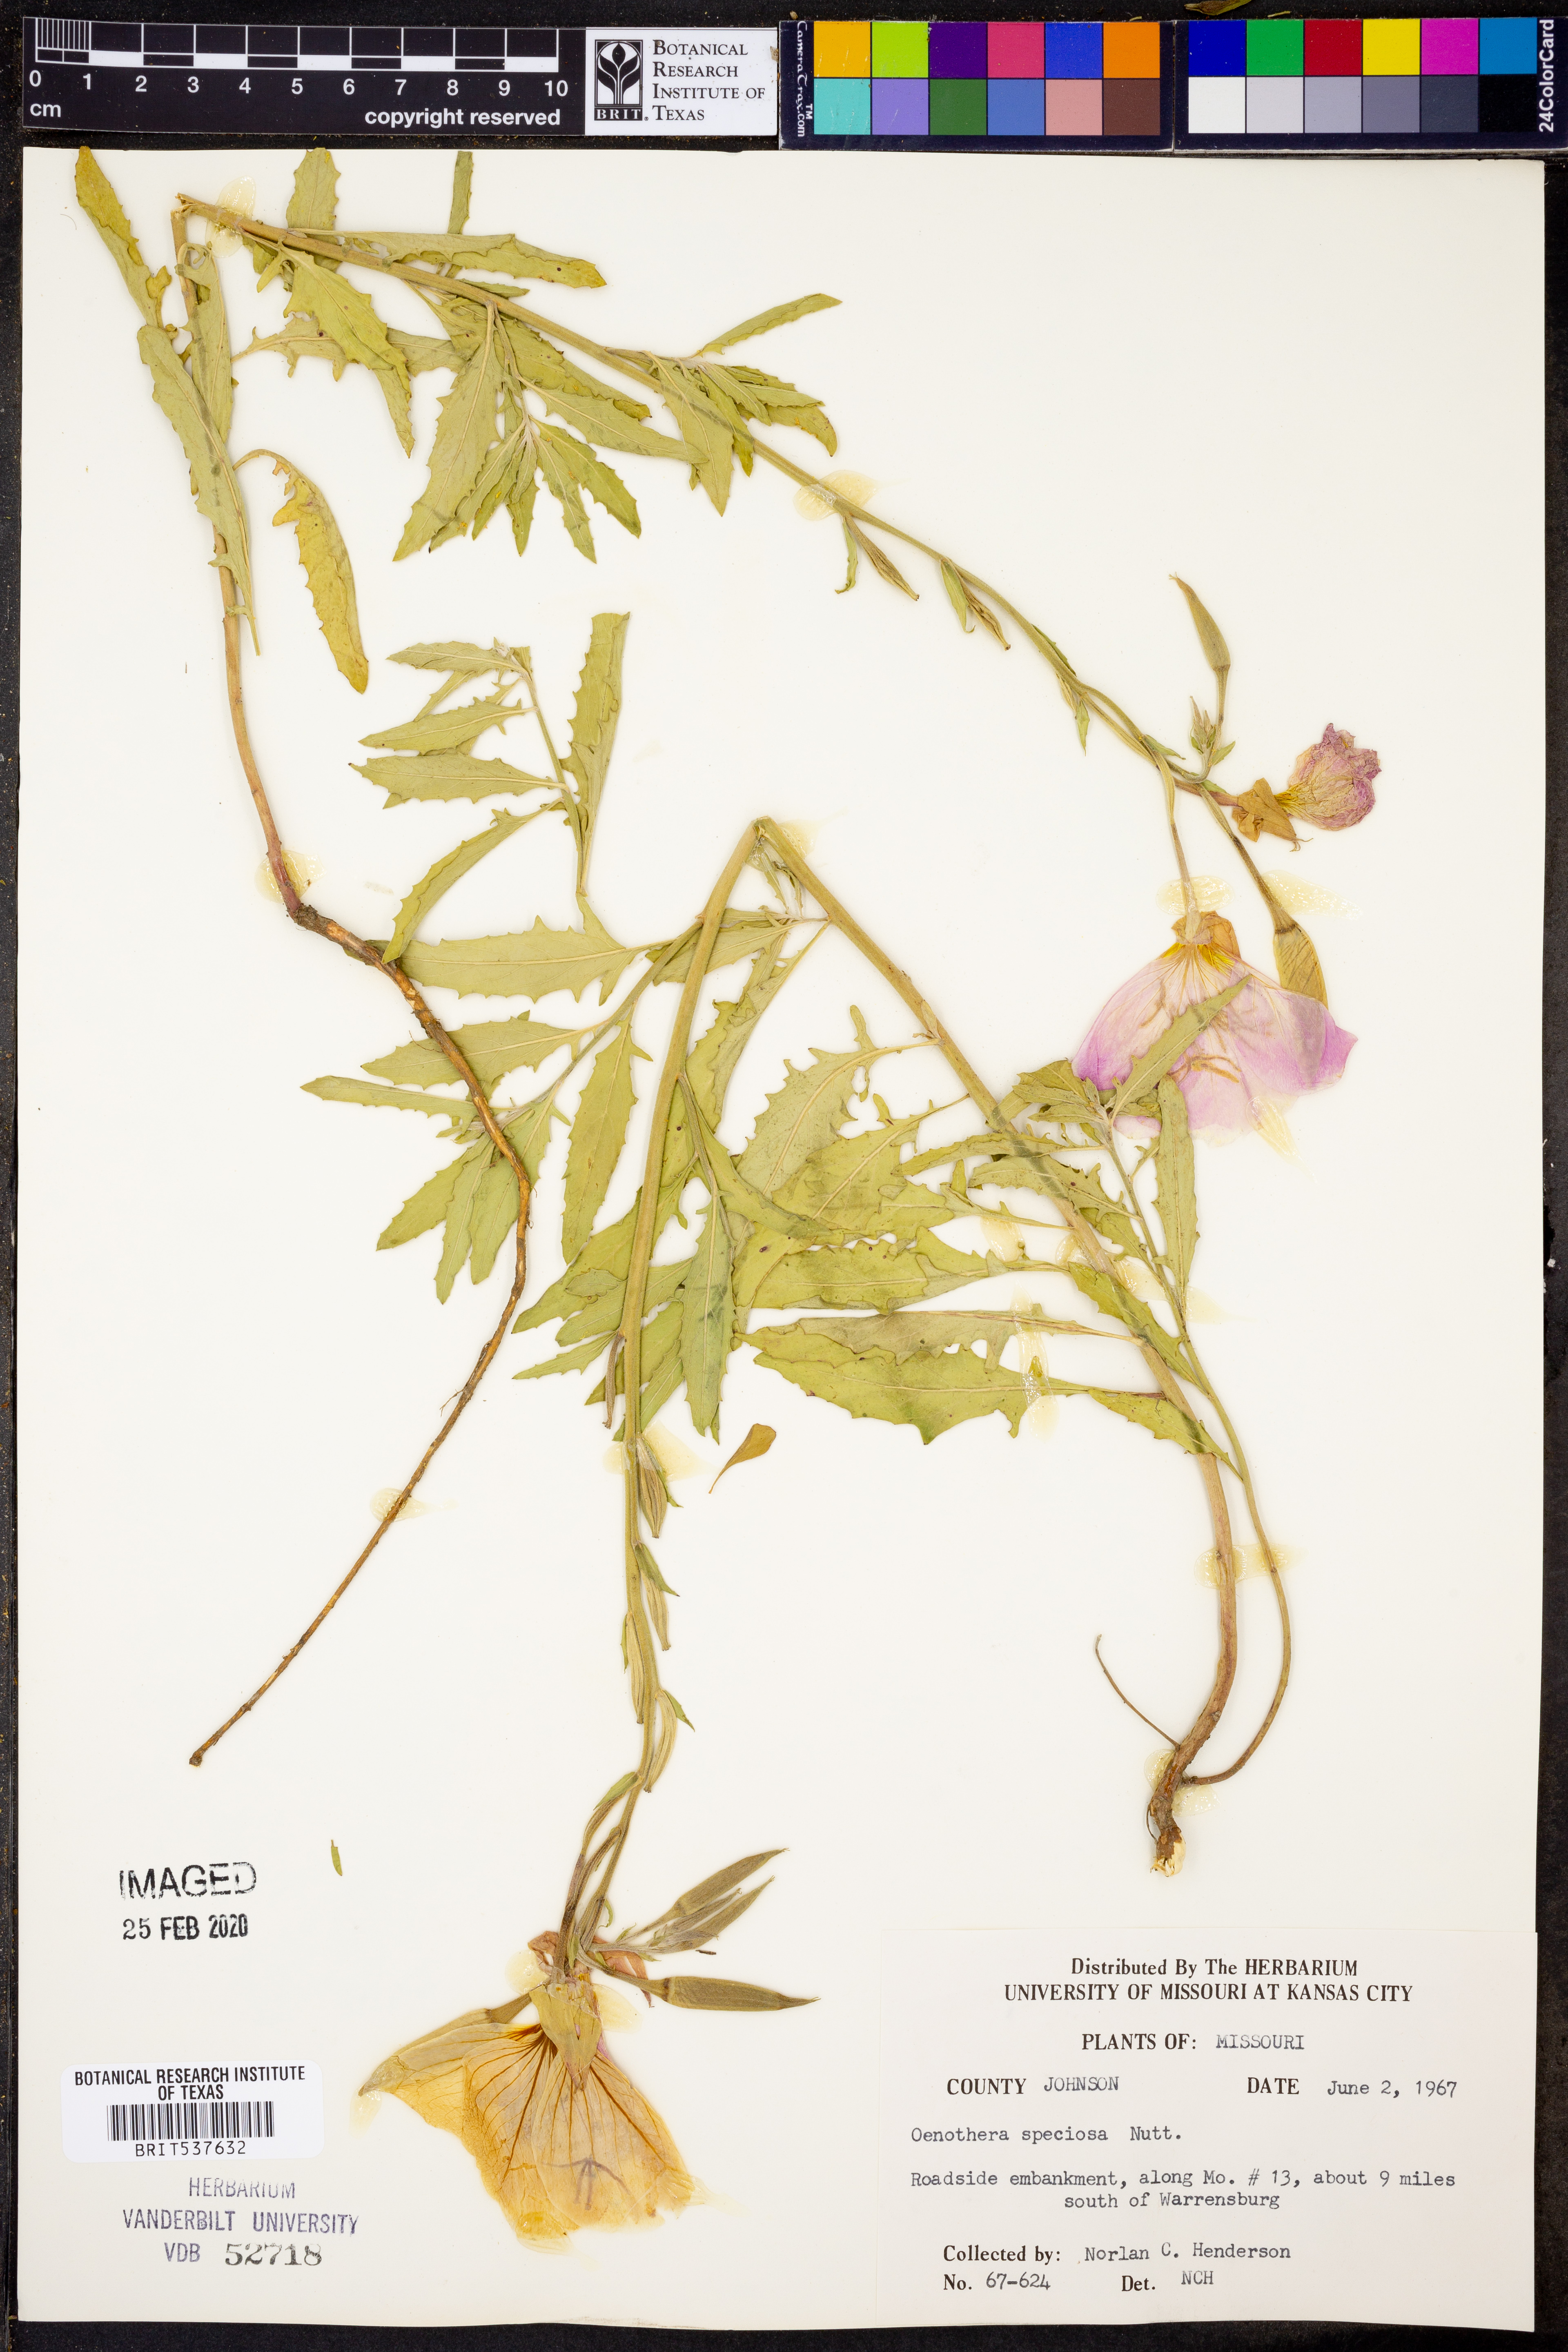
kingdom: Plantae
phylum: Tracheophyta
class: Magnoliopsida
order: Myrtales
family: Onagraceae
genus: Oenothera
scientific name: Oenothera speciosa
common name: White evening-primrose
